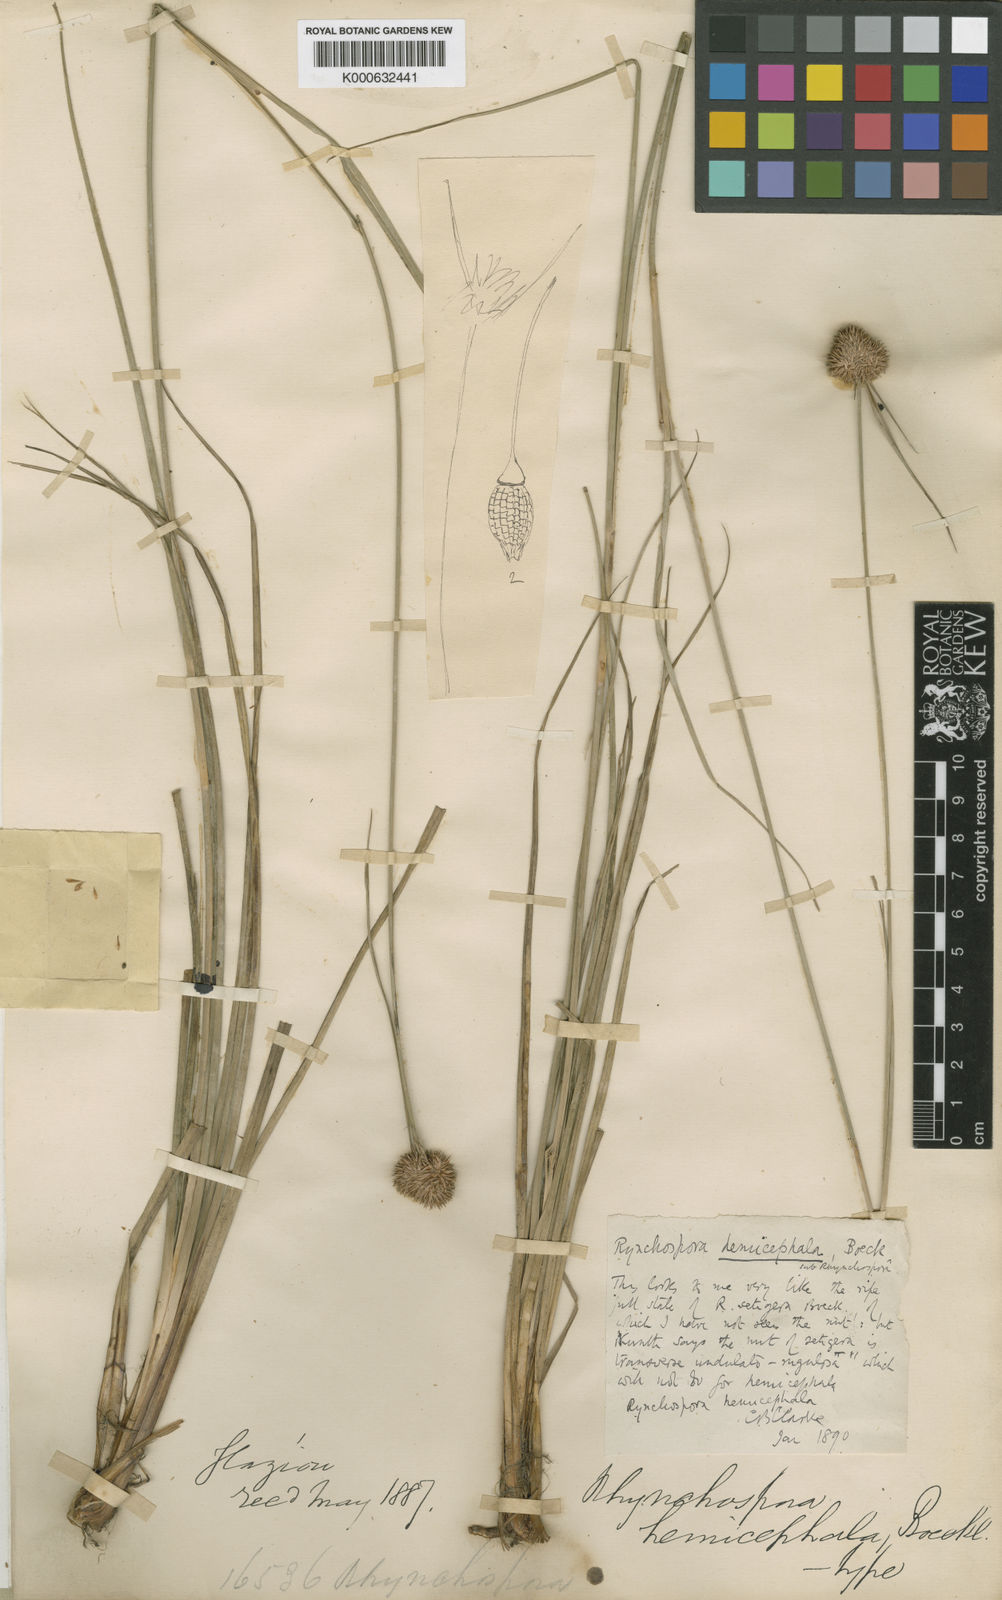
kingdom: Plantae
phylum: Tracheophyta
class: Liliopsida
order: Poales
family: Cyperaceae
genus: Rhynchospora
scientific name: Rhynchospora recurvata
